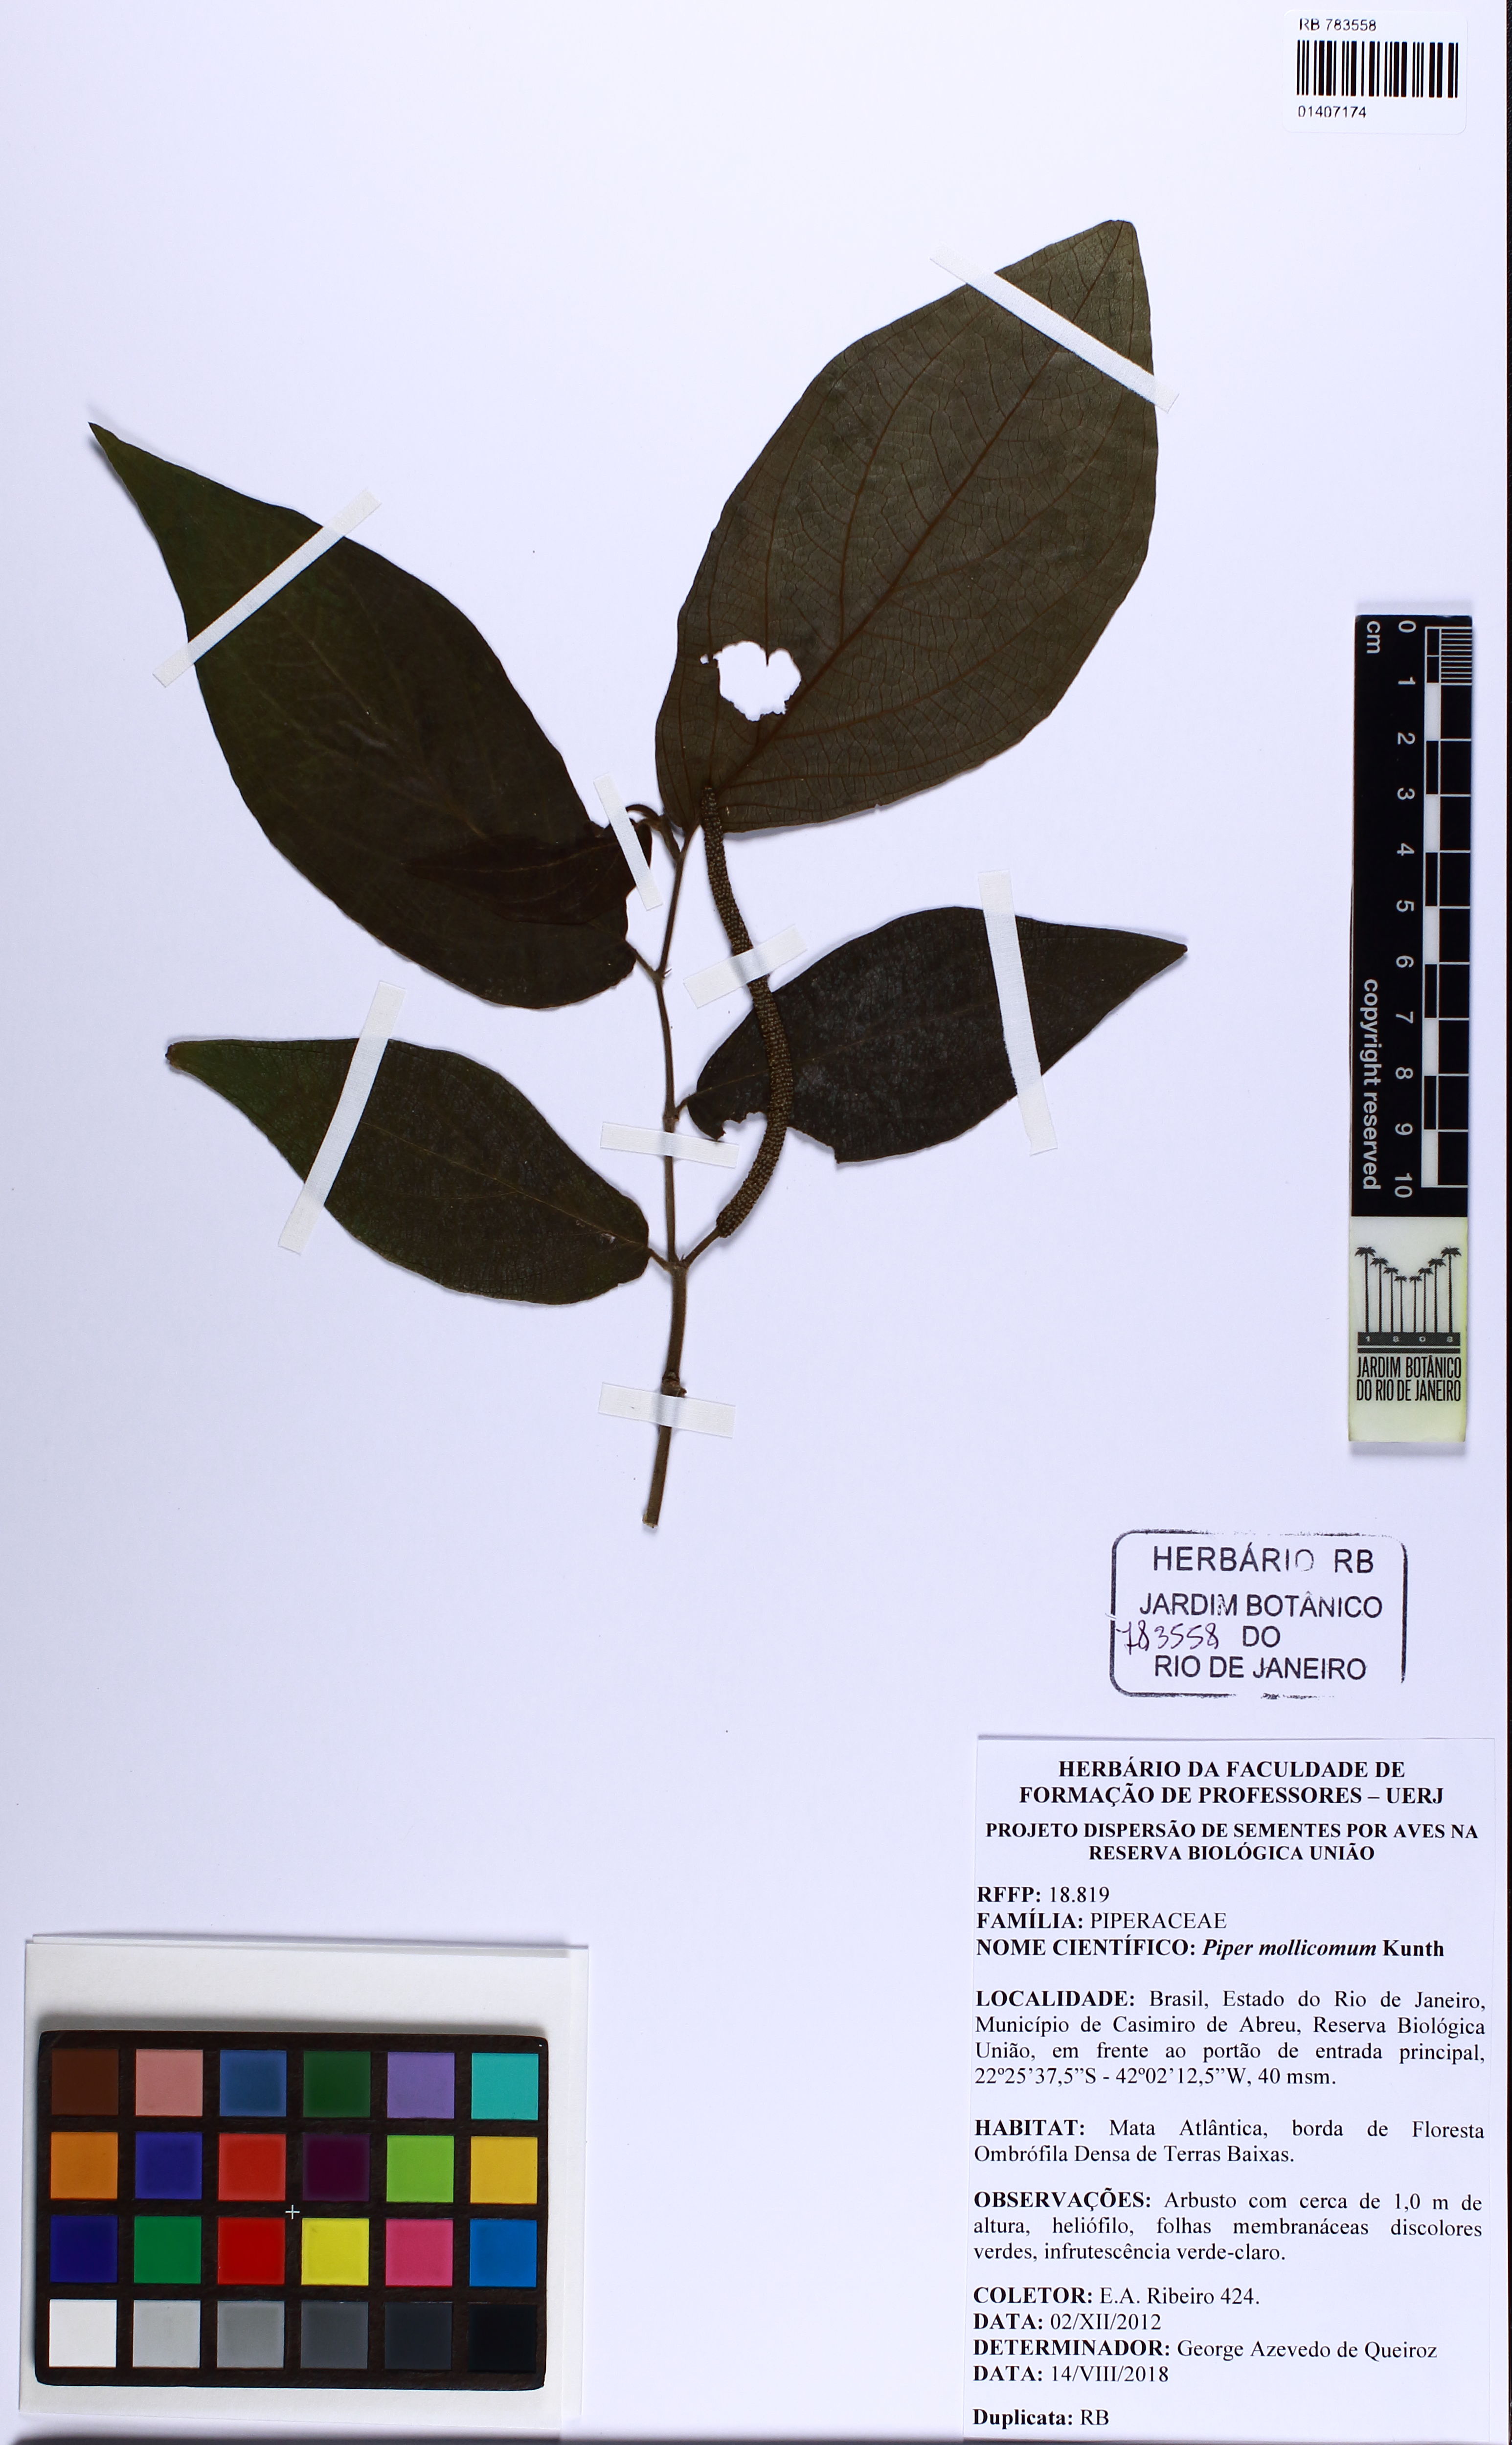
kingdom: Plantae
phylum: Tracheophyta
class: Magnoliopsida
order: Piperales
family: Piperaceae
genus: Piper
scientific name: Piper mollicomum
